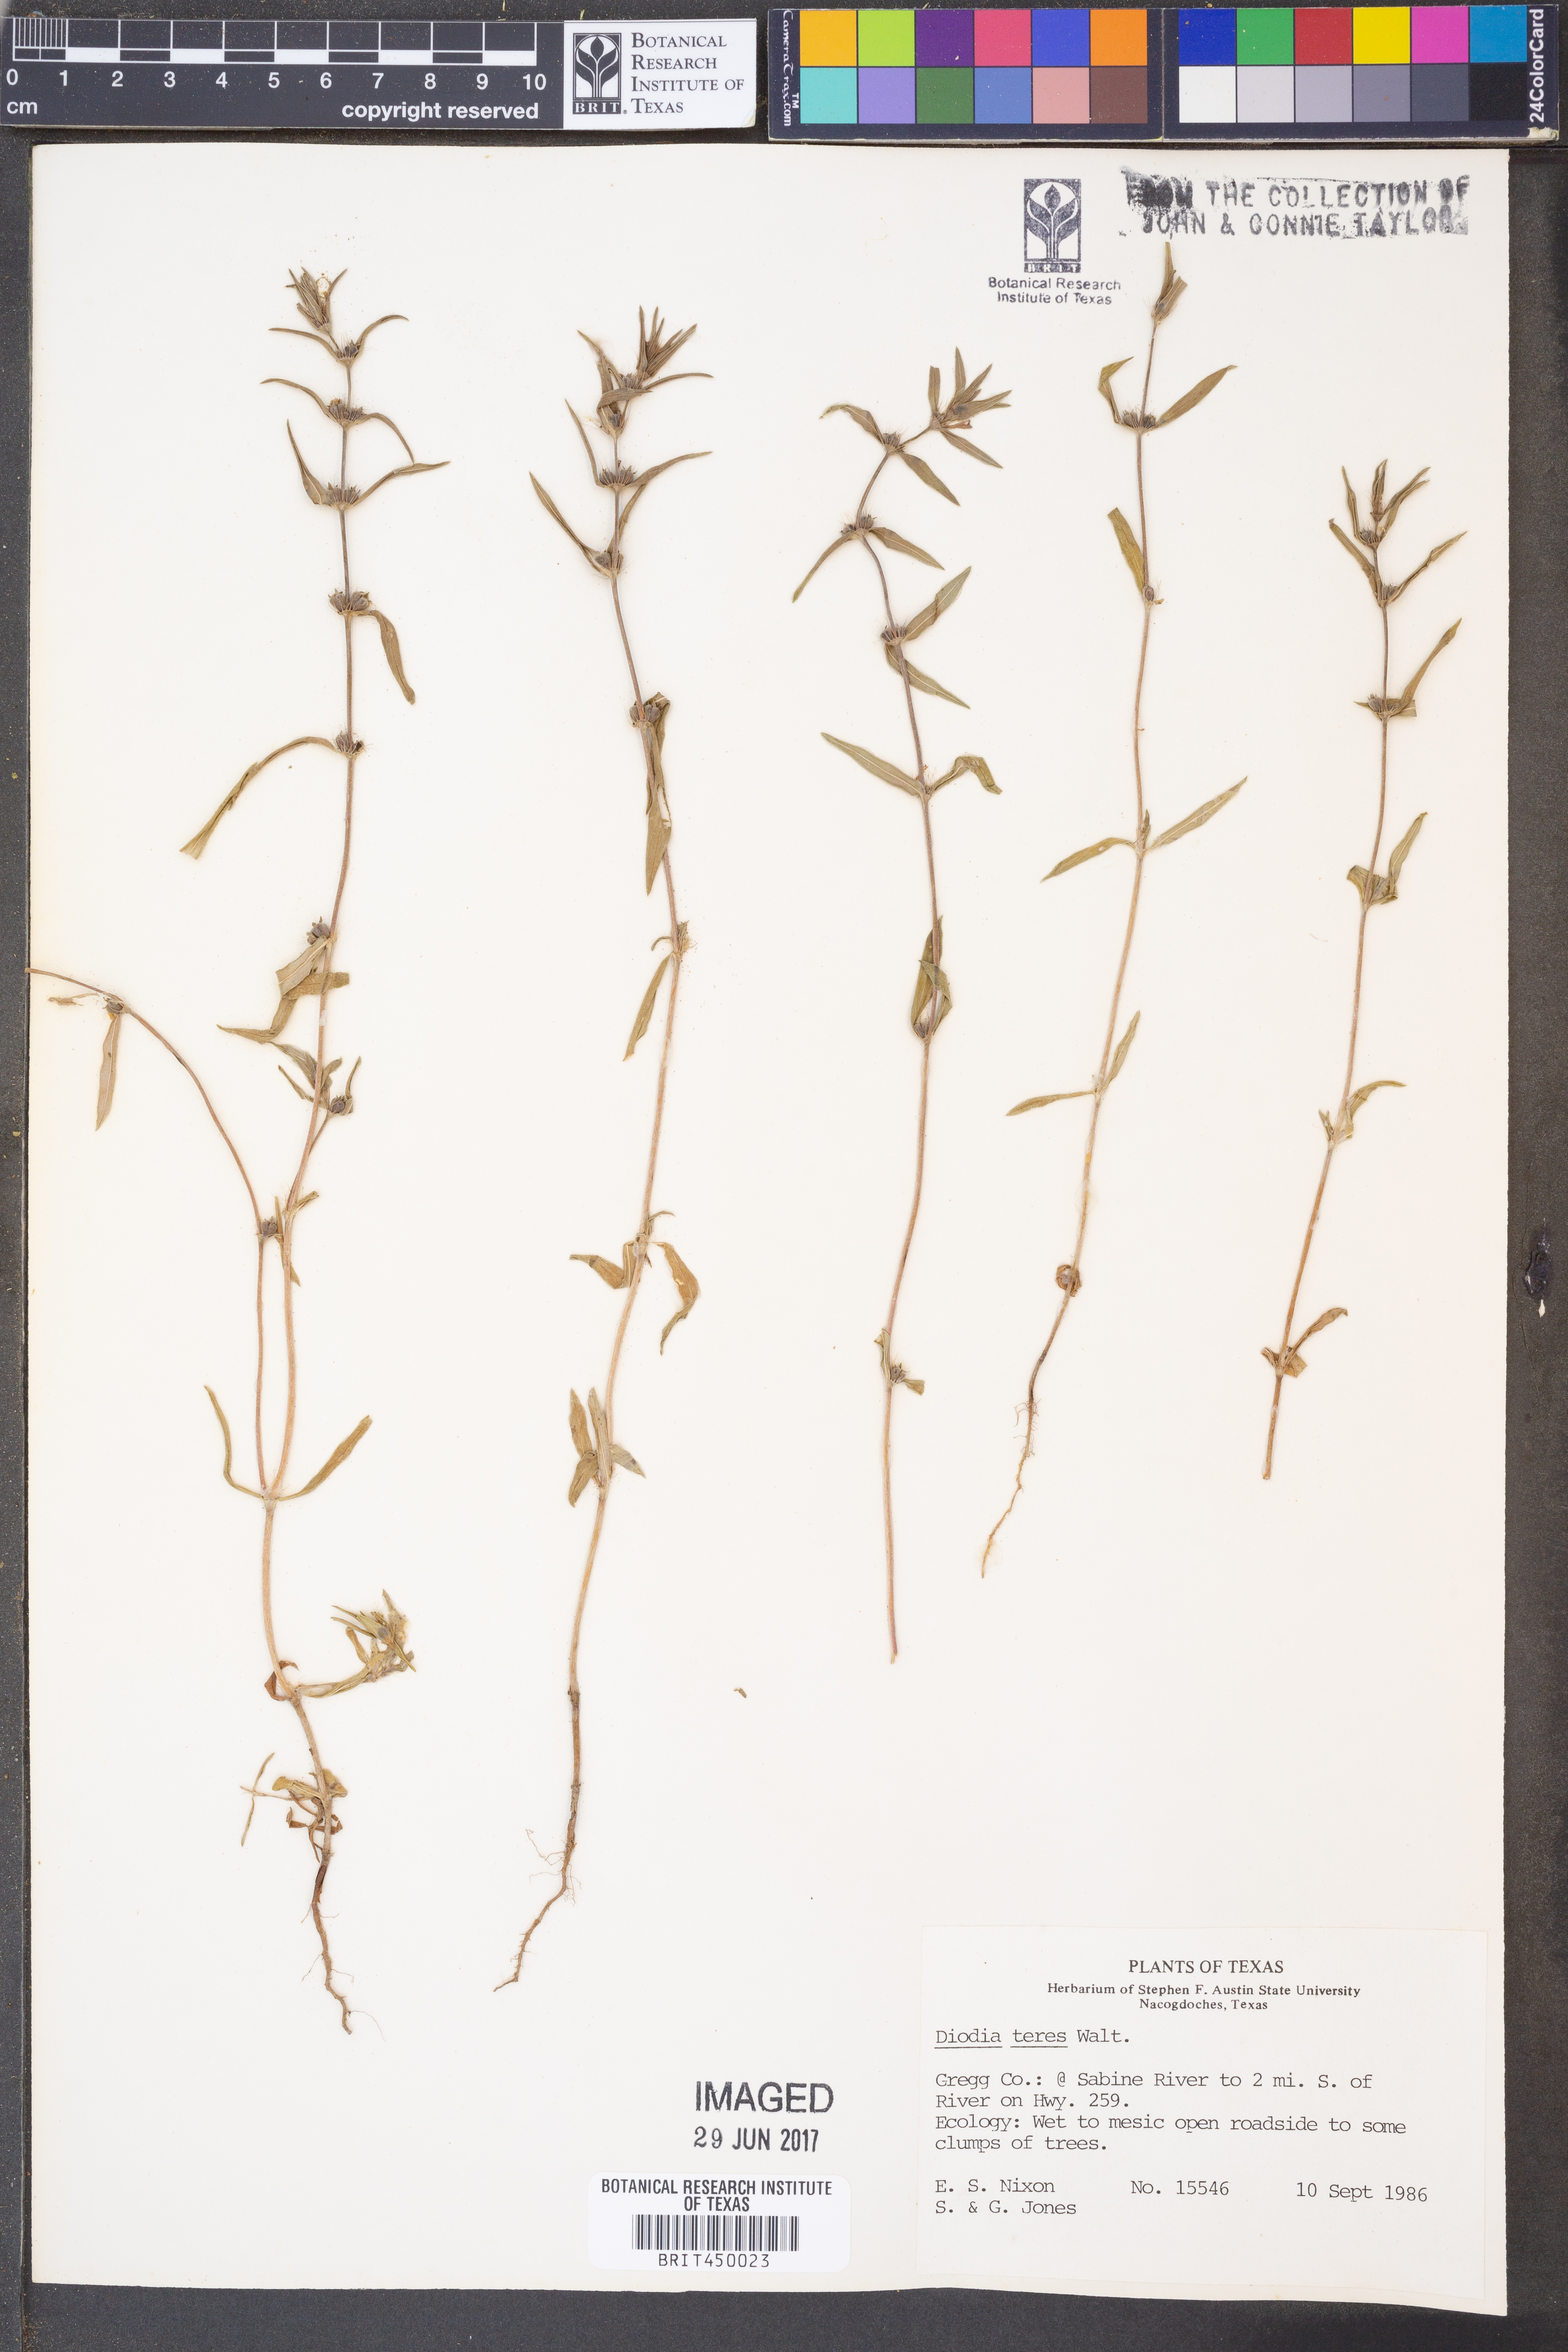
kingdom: Plantae
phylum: Tracheophyta
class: Magnoliopsida
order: Gentianales
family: Rubiaceae
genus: Hexasepalum
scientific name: Hexasepalum teres
